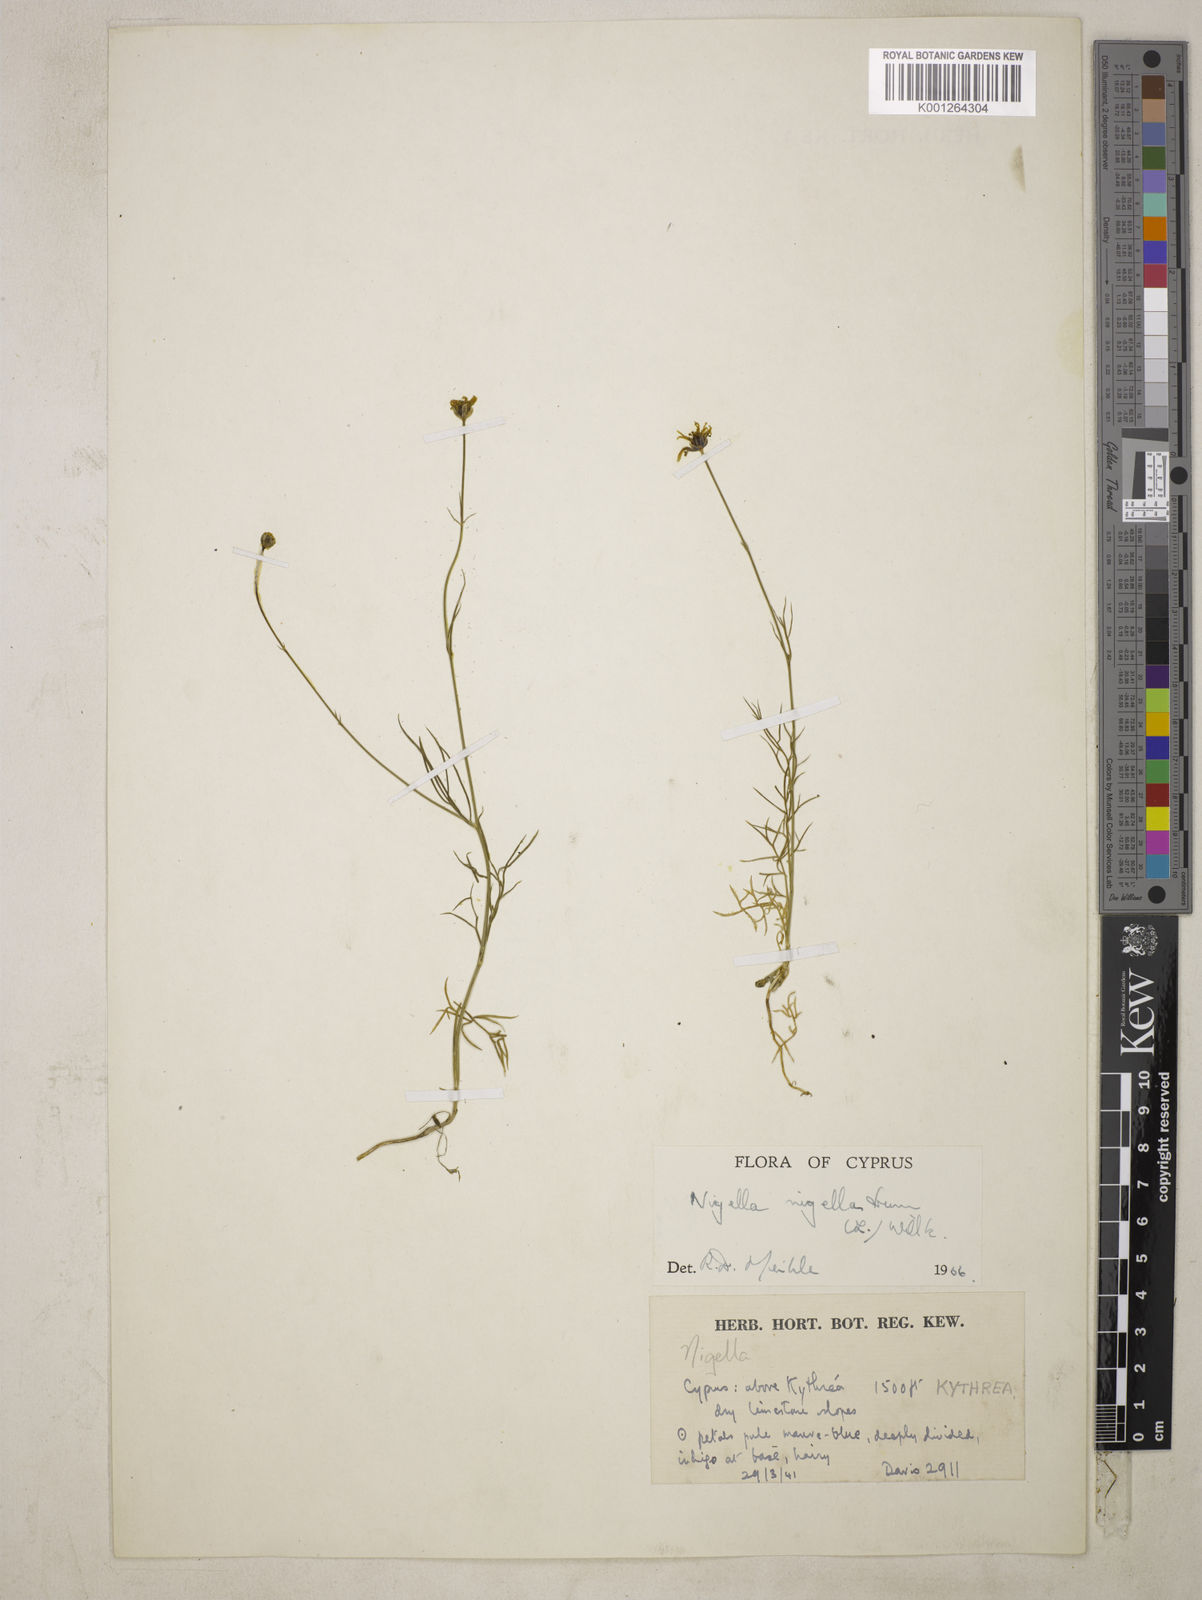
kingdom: Plantae
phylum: Tracheophyta
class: Magnoliopsida
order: Ranunculales
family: Ranunculaceae
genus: Garidella
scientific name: Garidella nigellastrum
